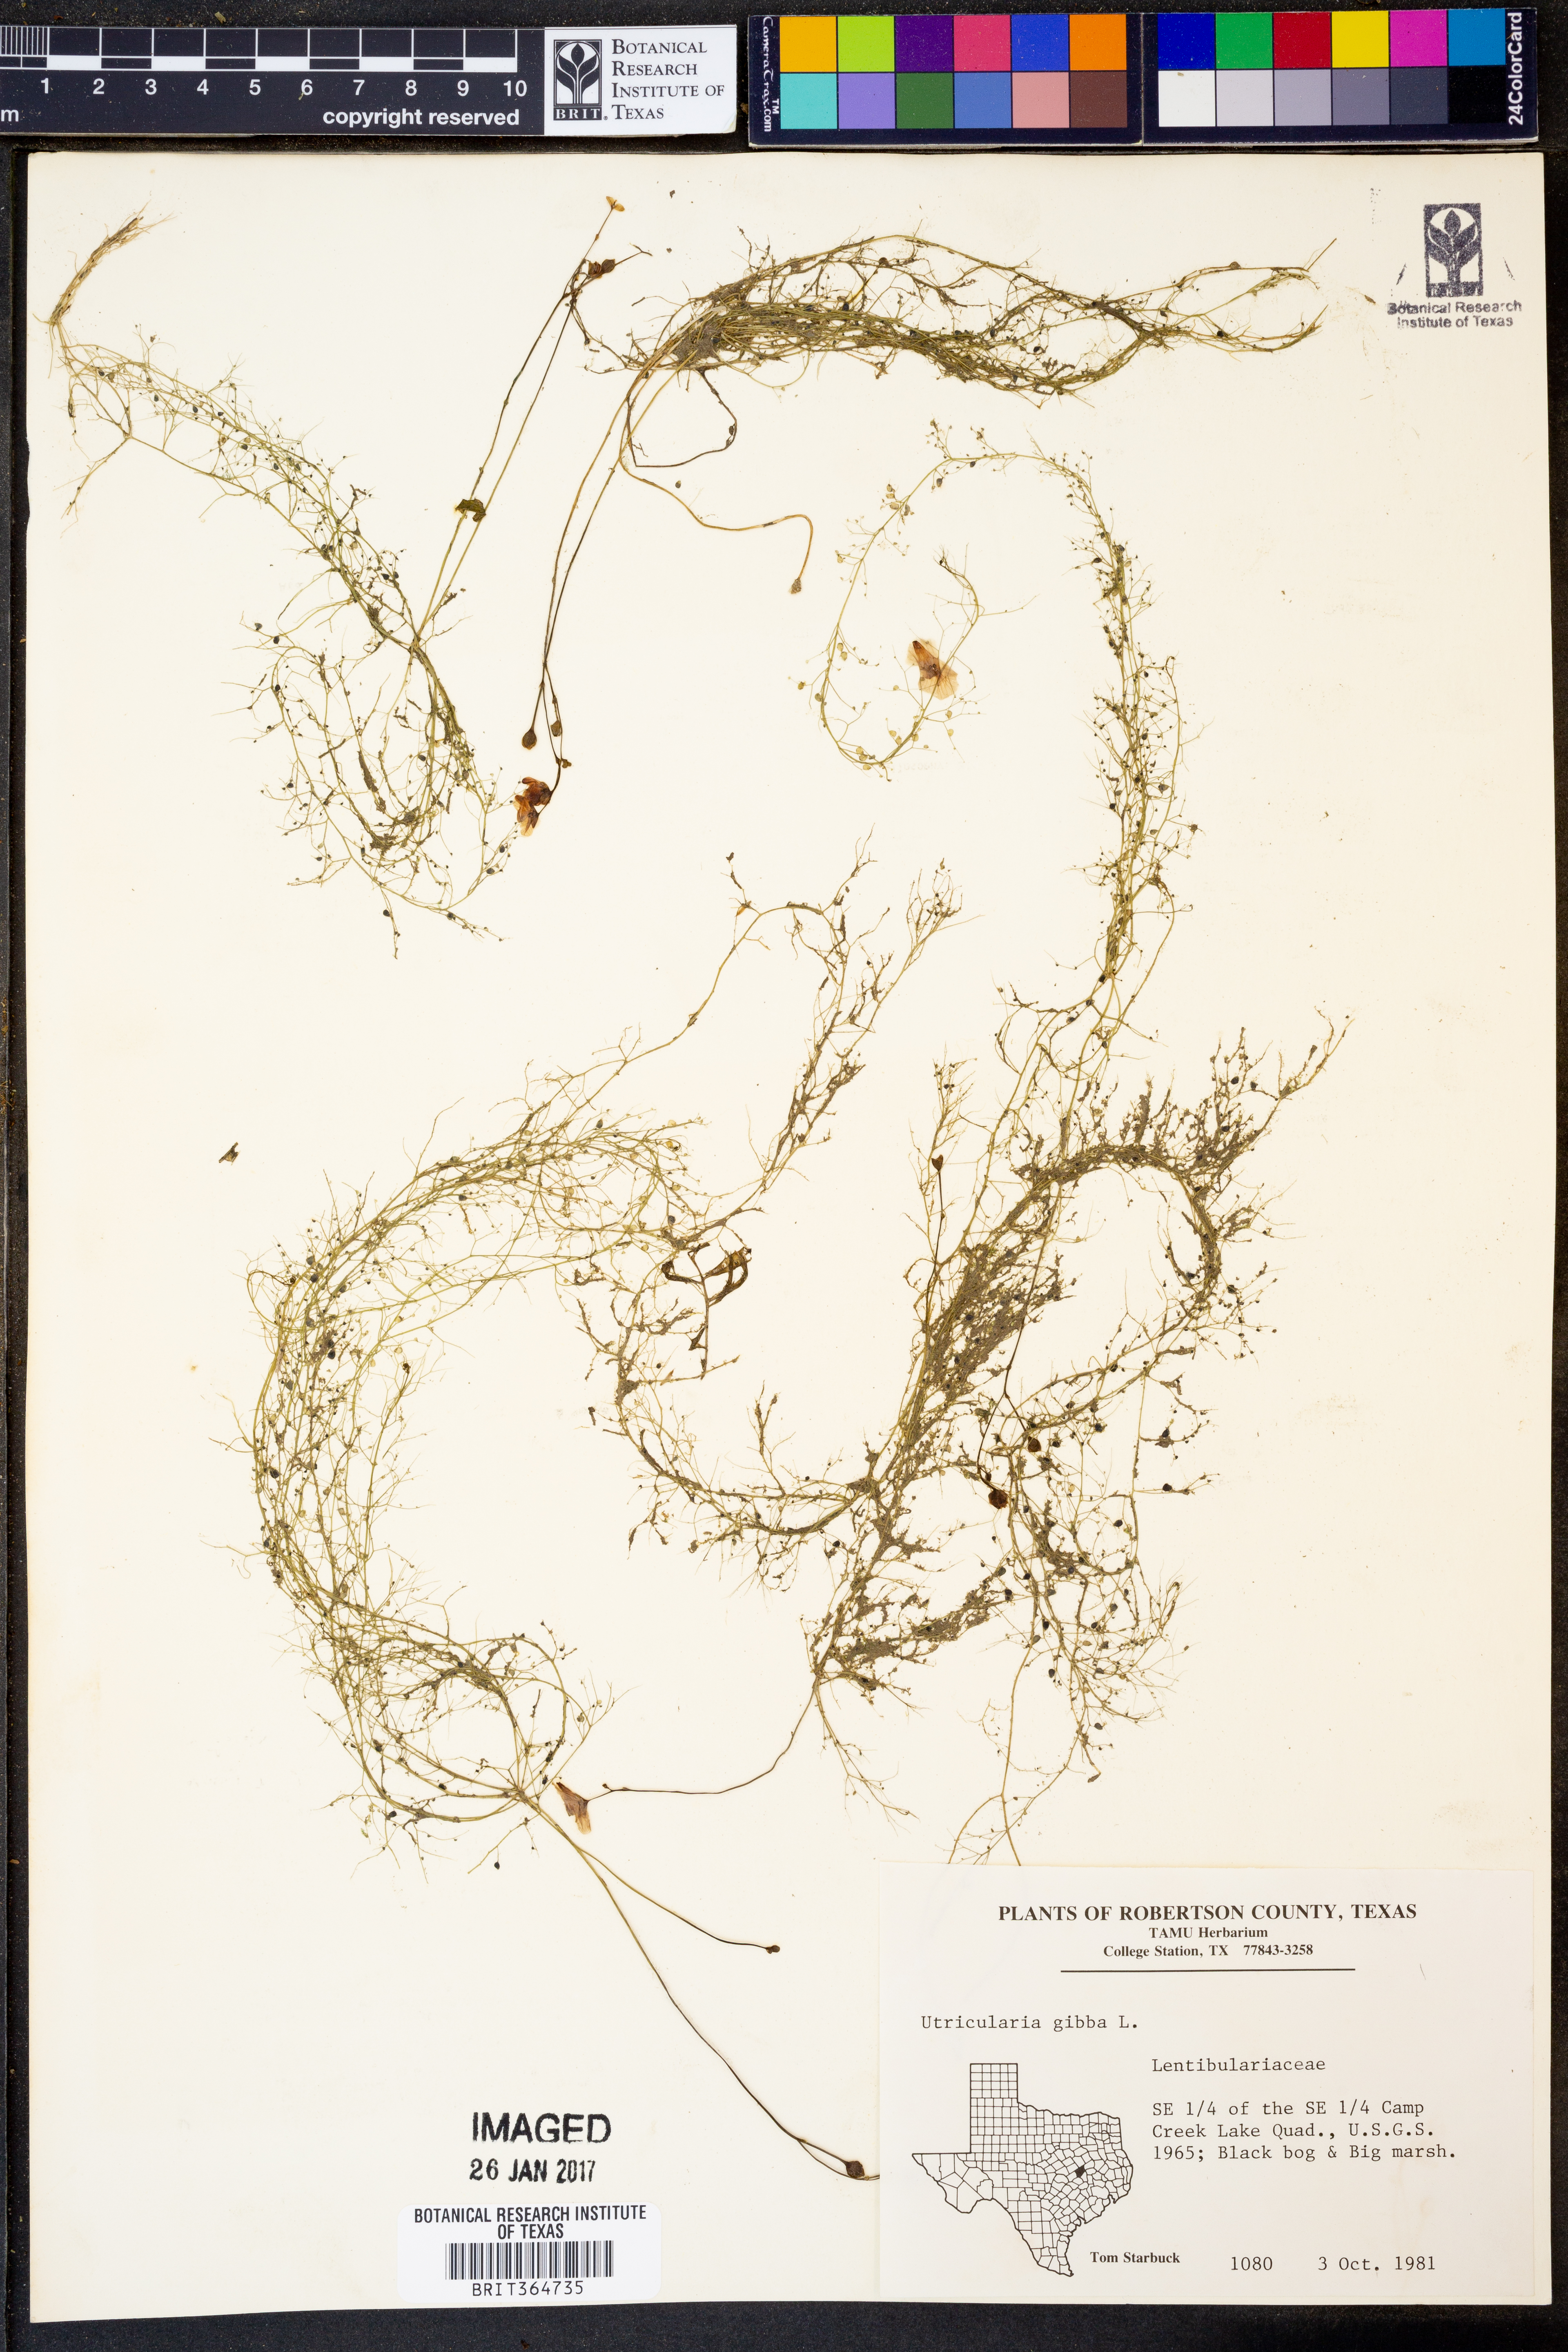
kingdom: Plantae
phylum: Tracheophyta
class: Magnoliopsida
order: Lamiales
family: Lentibulariaceae
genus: Utricularia
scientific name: Utricularia gibba
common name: Humped bladderwort
